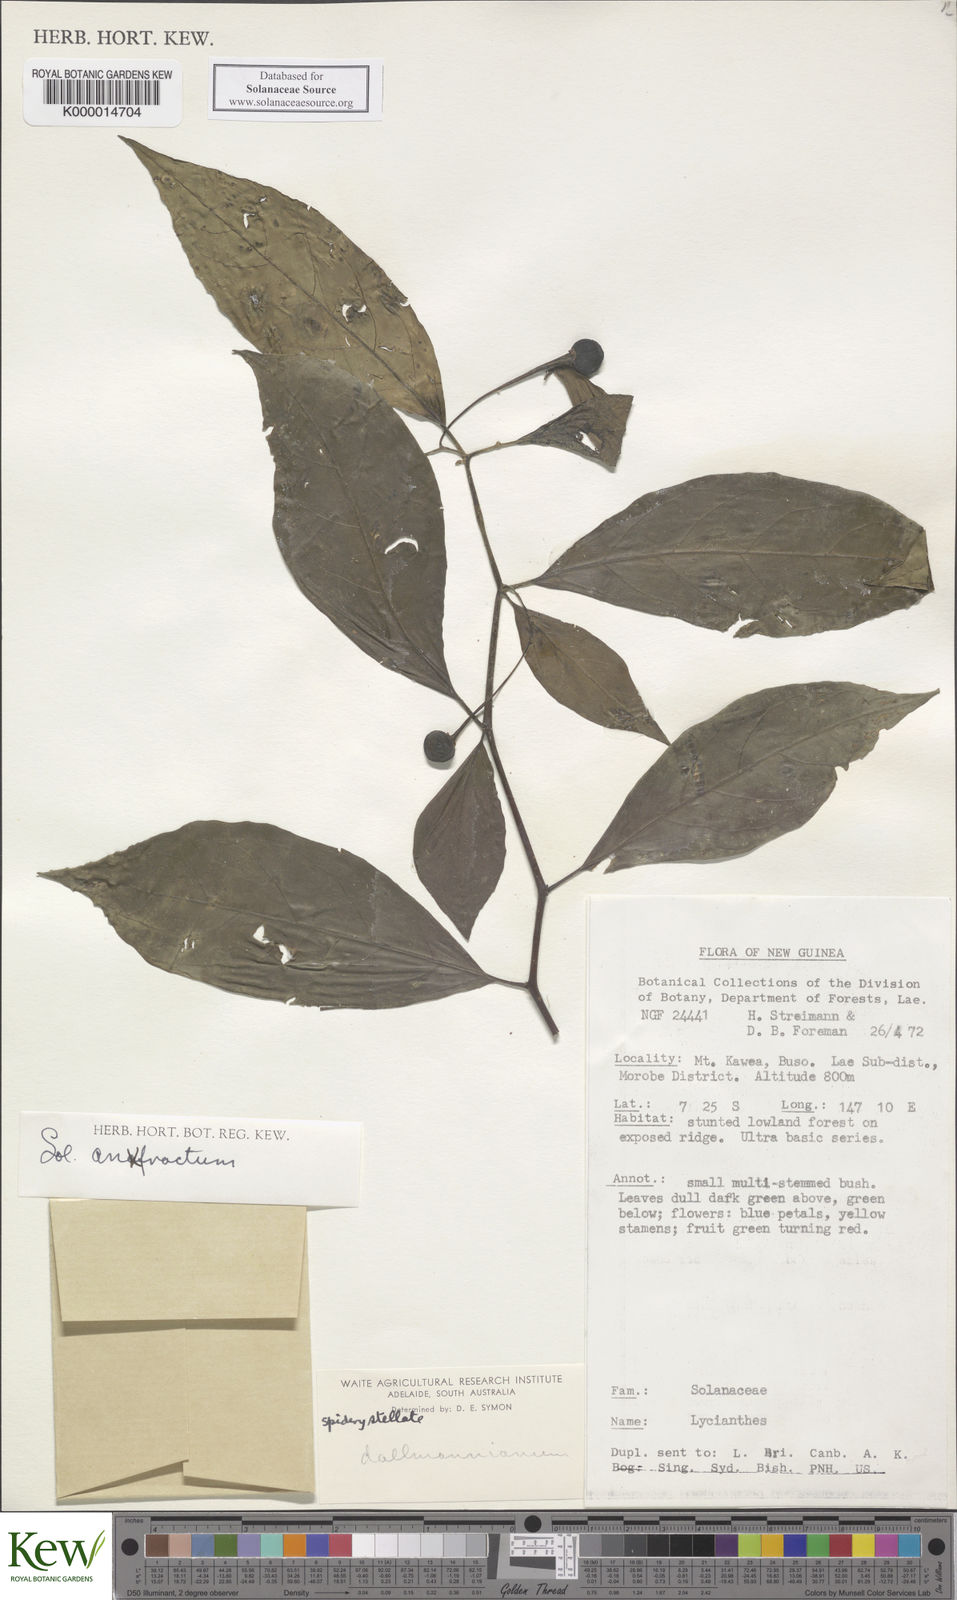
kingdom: Plantae
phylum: Tracheophyta
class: Magnoliopsida
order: Solanales
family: Solanaceae
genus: Solanum
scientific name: Solanum anfractum
